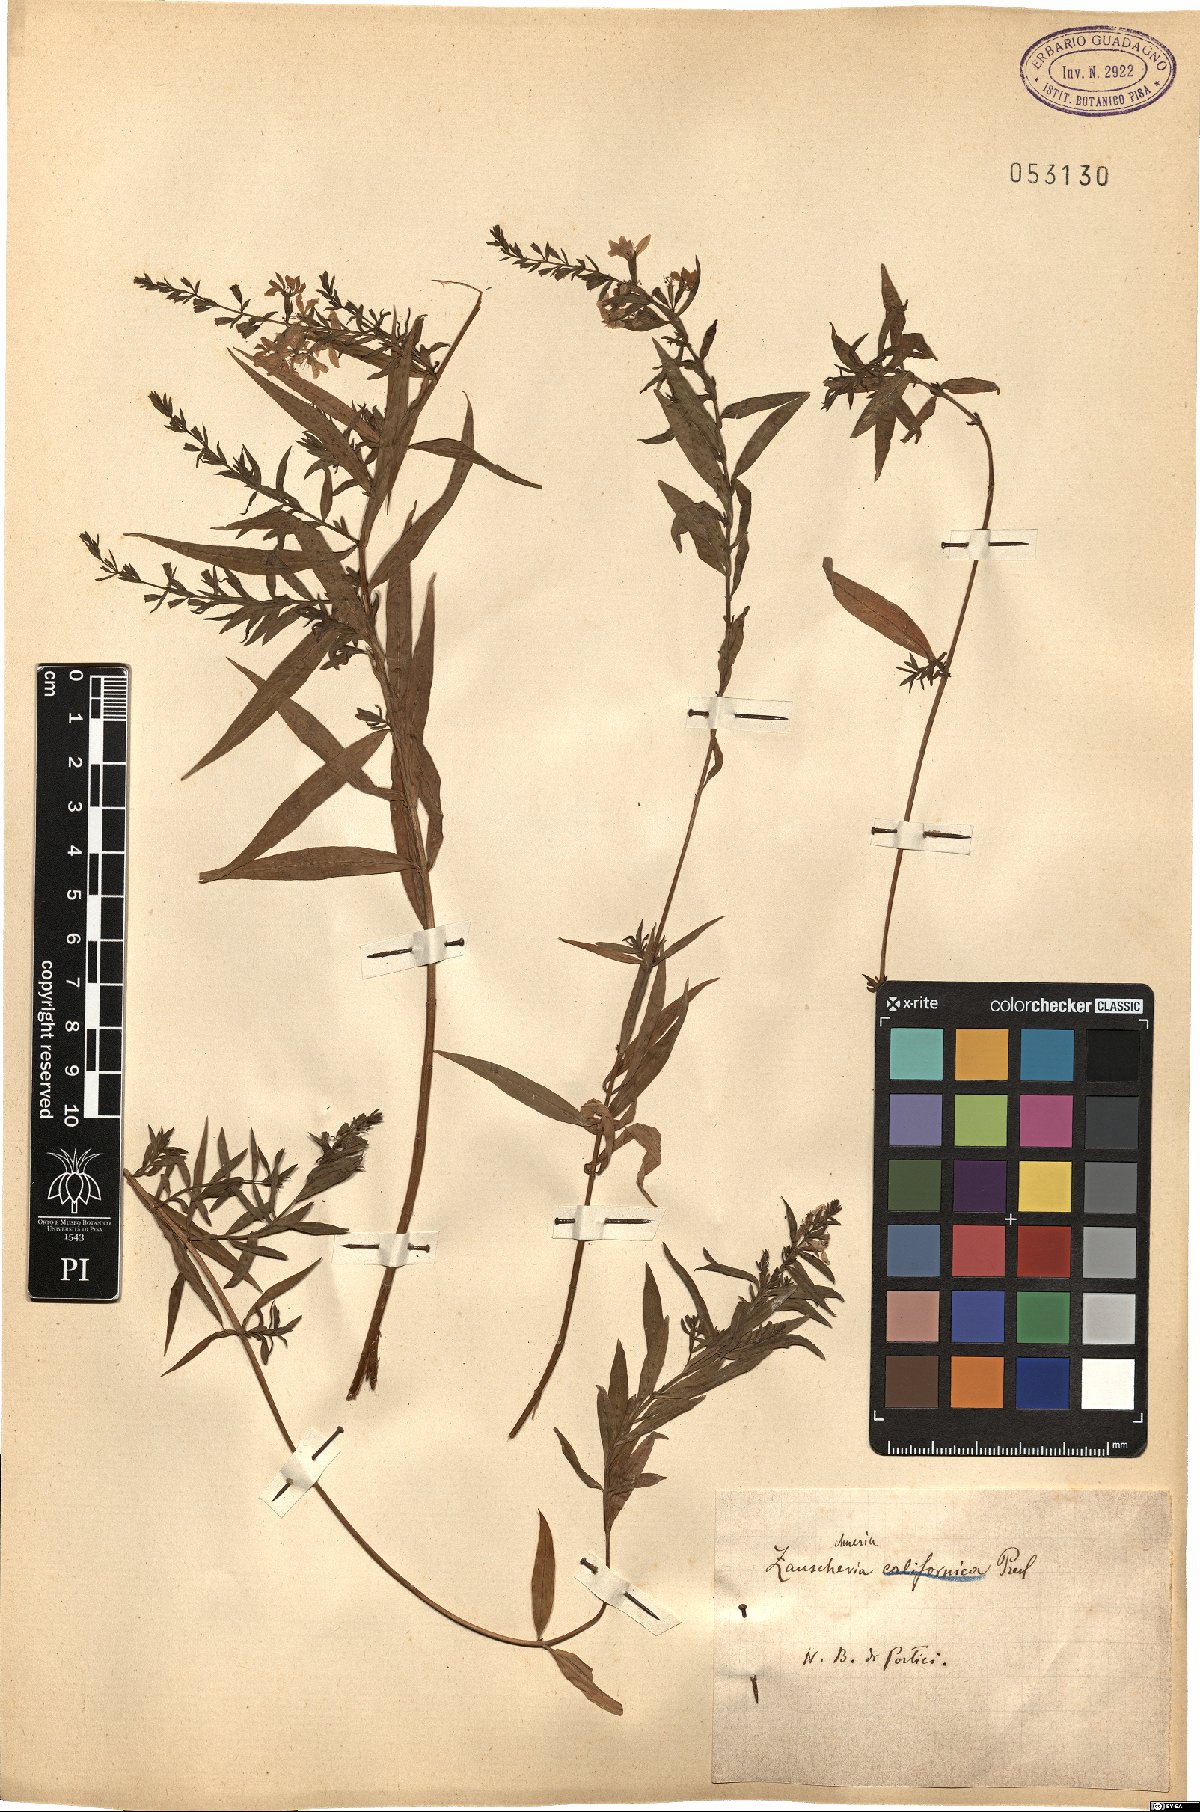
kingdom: Plantae
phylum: Tracheophyta
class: Magnoliopsida
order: Myrtales
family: Onagraceae
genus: Epilobium
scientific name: Epilobium canum
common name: California-fuchsia
